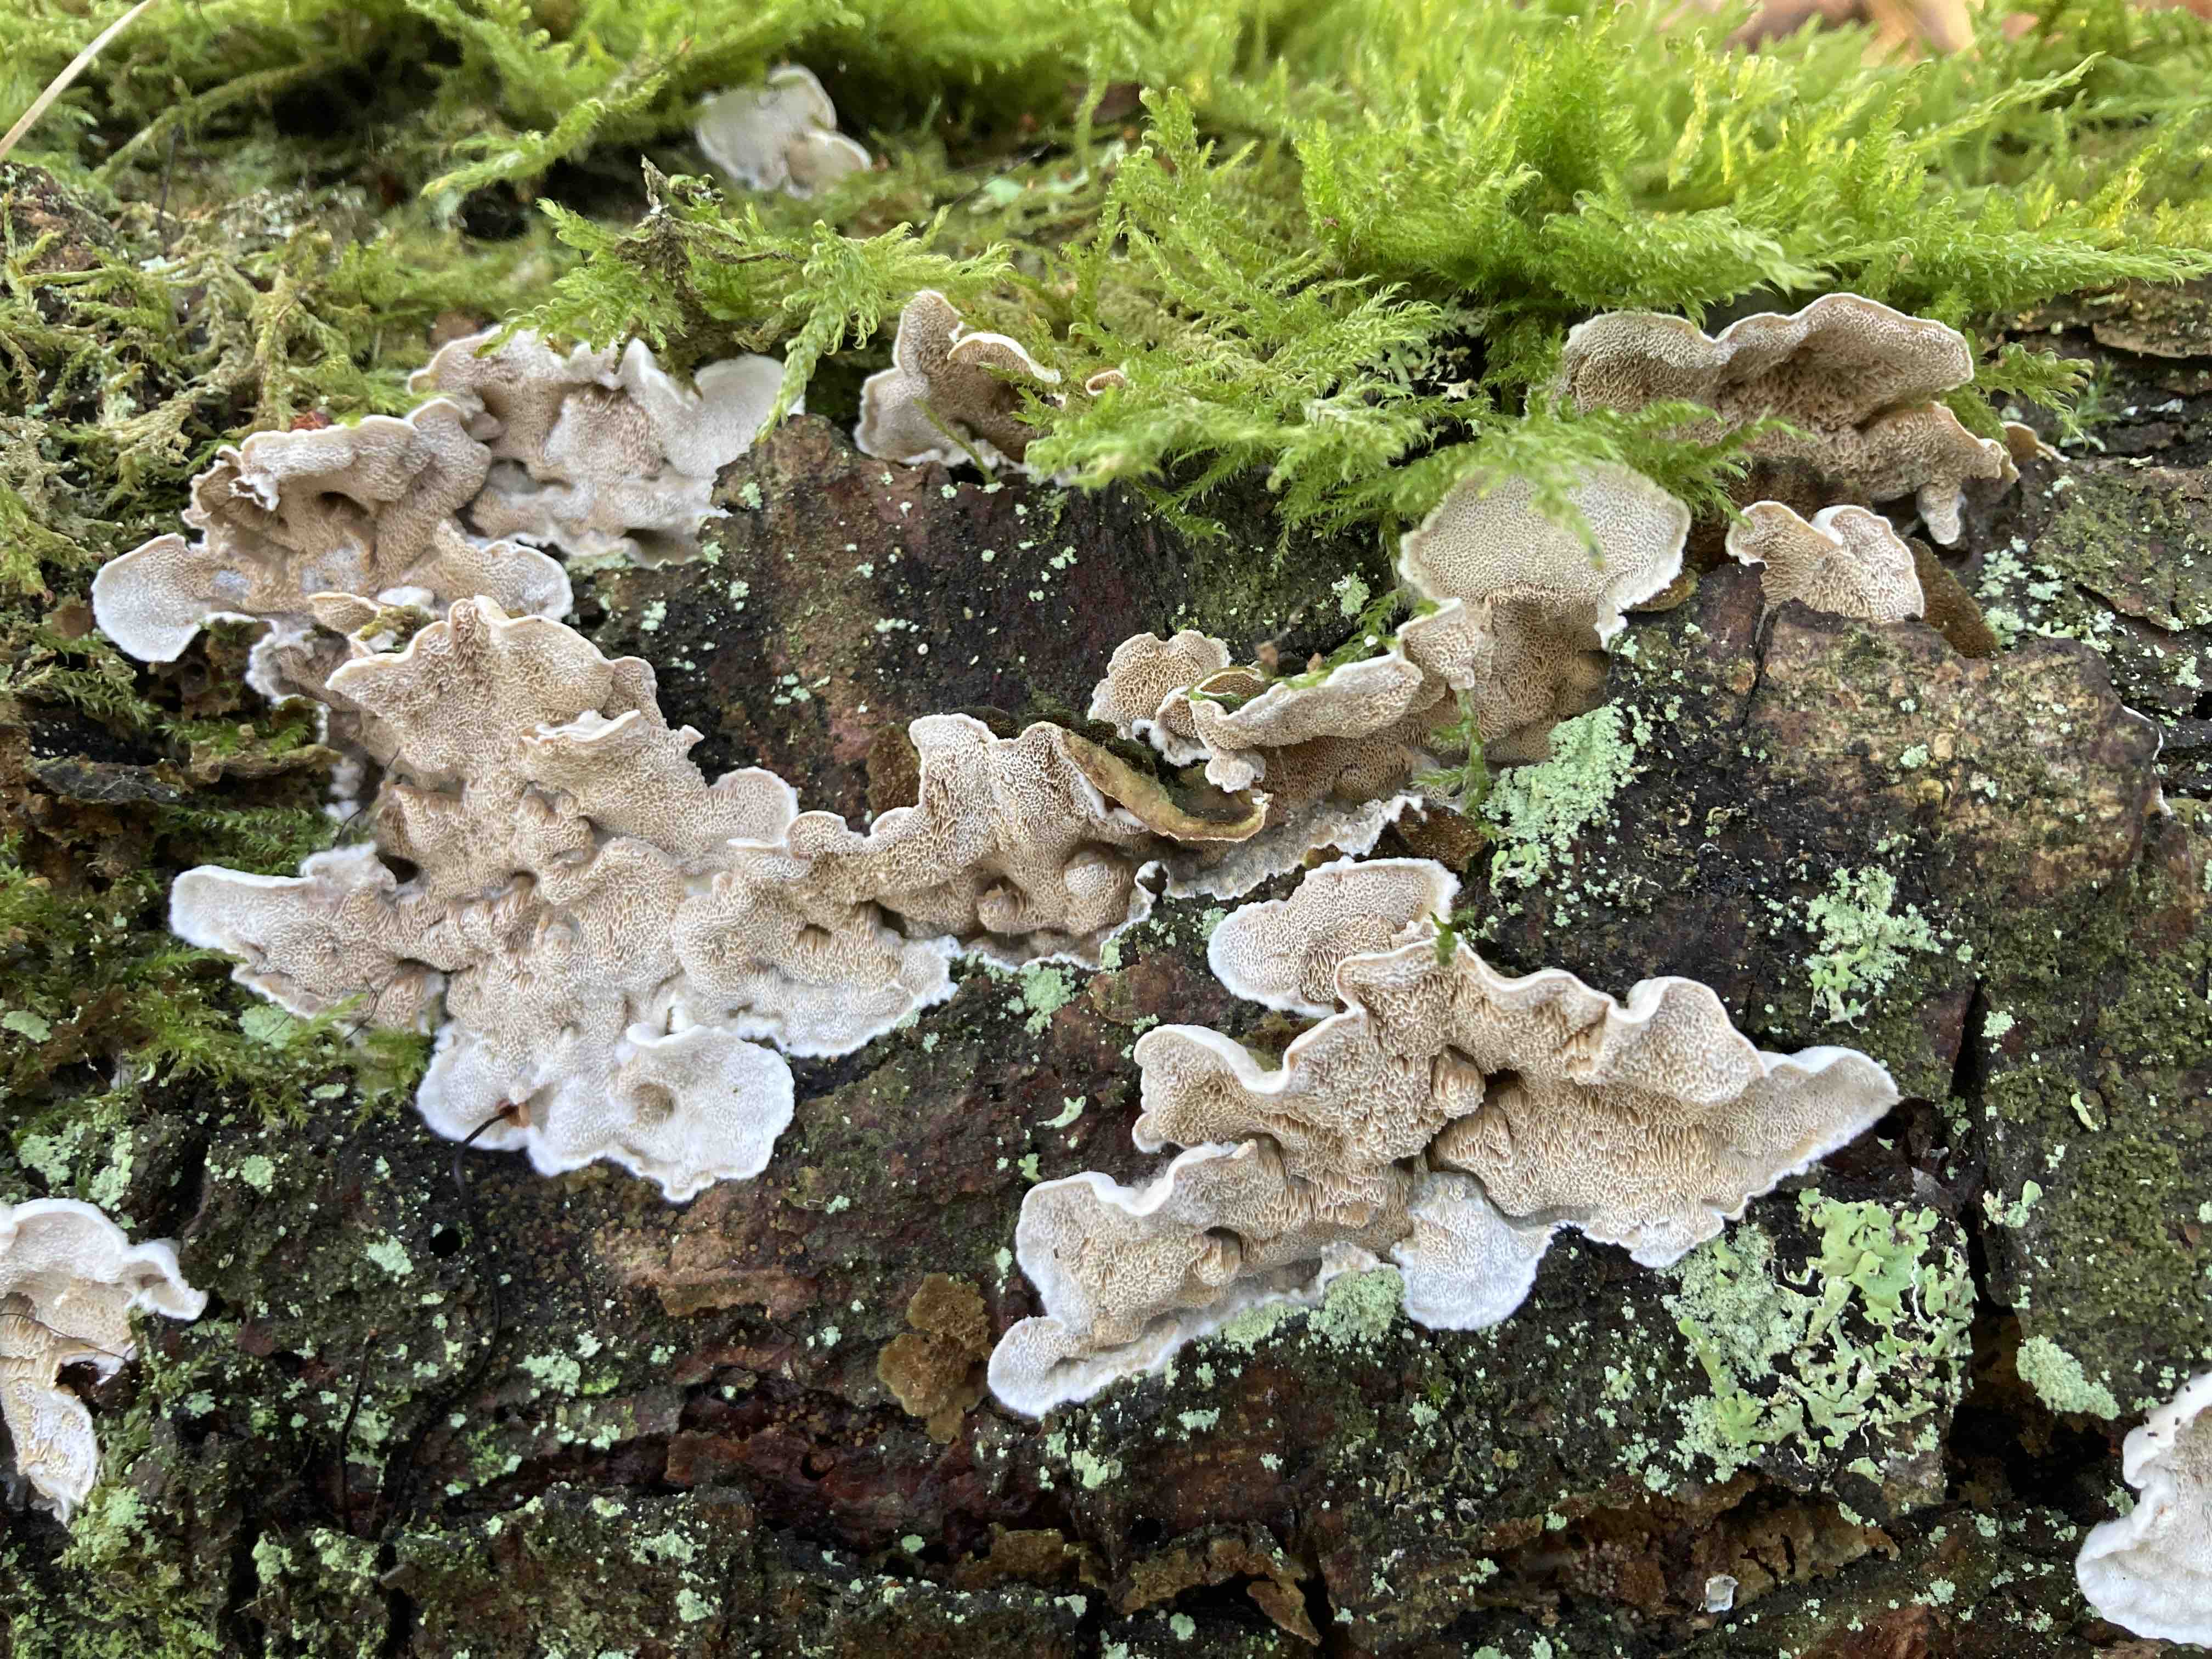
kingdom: Fungi
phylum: Basidiomycota
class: Agaricomycetes
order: Polyporales
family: Incrustoporiaceae
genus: Skeletocutis
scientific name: Skeletocutis carneogrisea
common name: rødgrå krystalporesvamp
